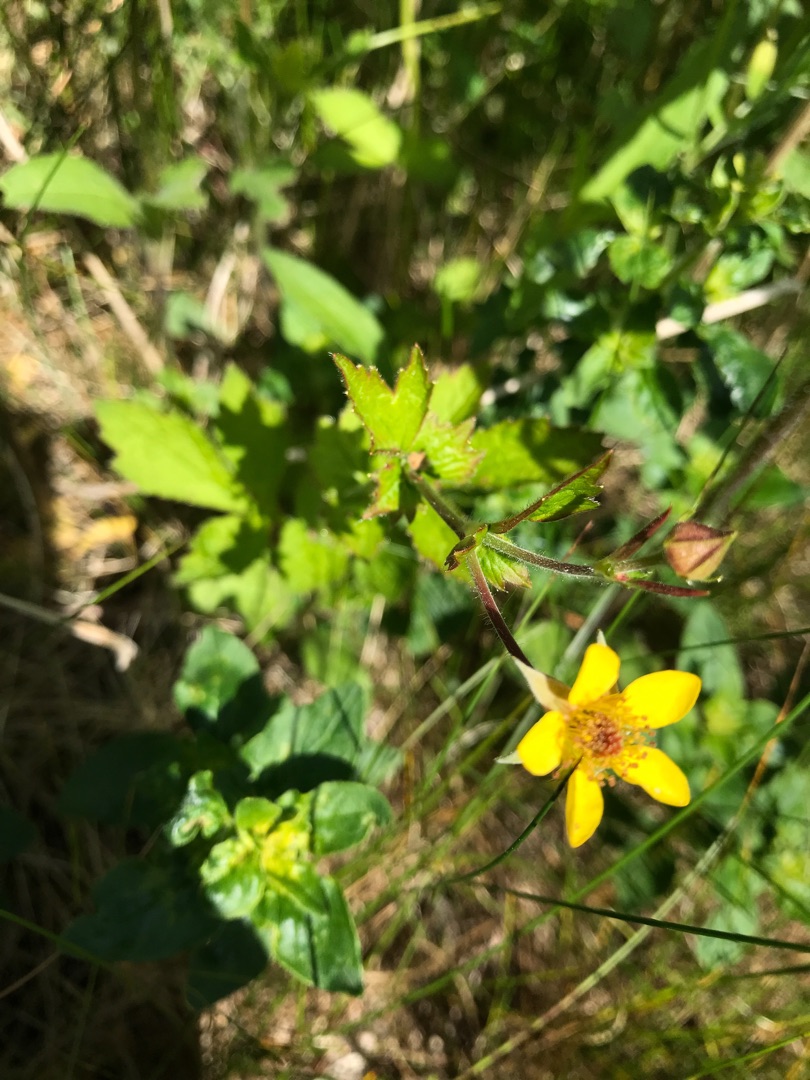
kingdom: Plantae
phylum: Tracheophyta
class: Magnoliopsida
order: Rosales
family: Rosaceae
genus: Geum
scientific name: Geum urbanum
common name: Feber-nellikerod
